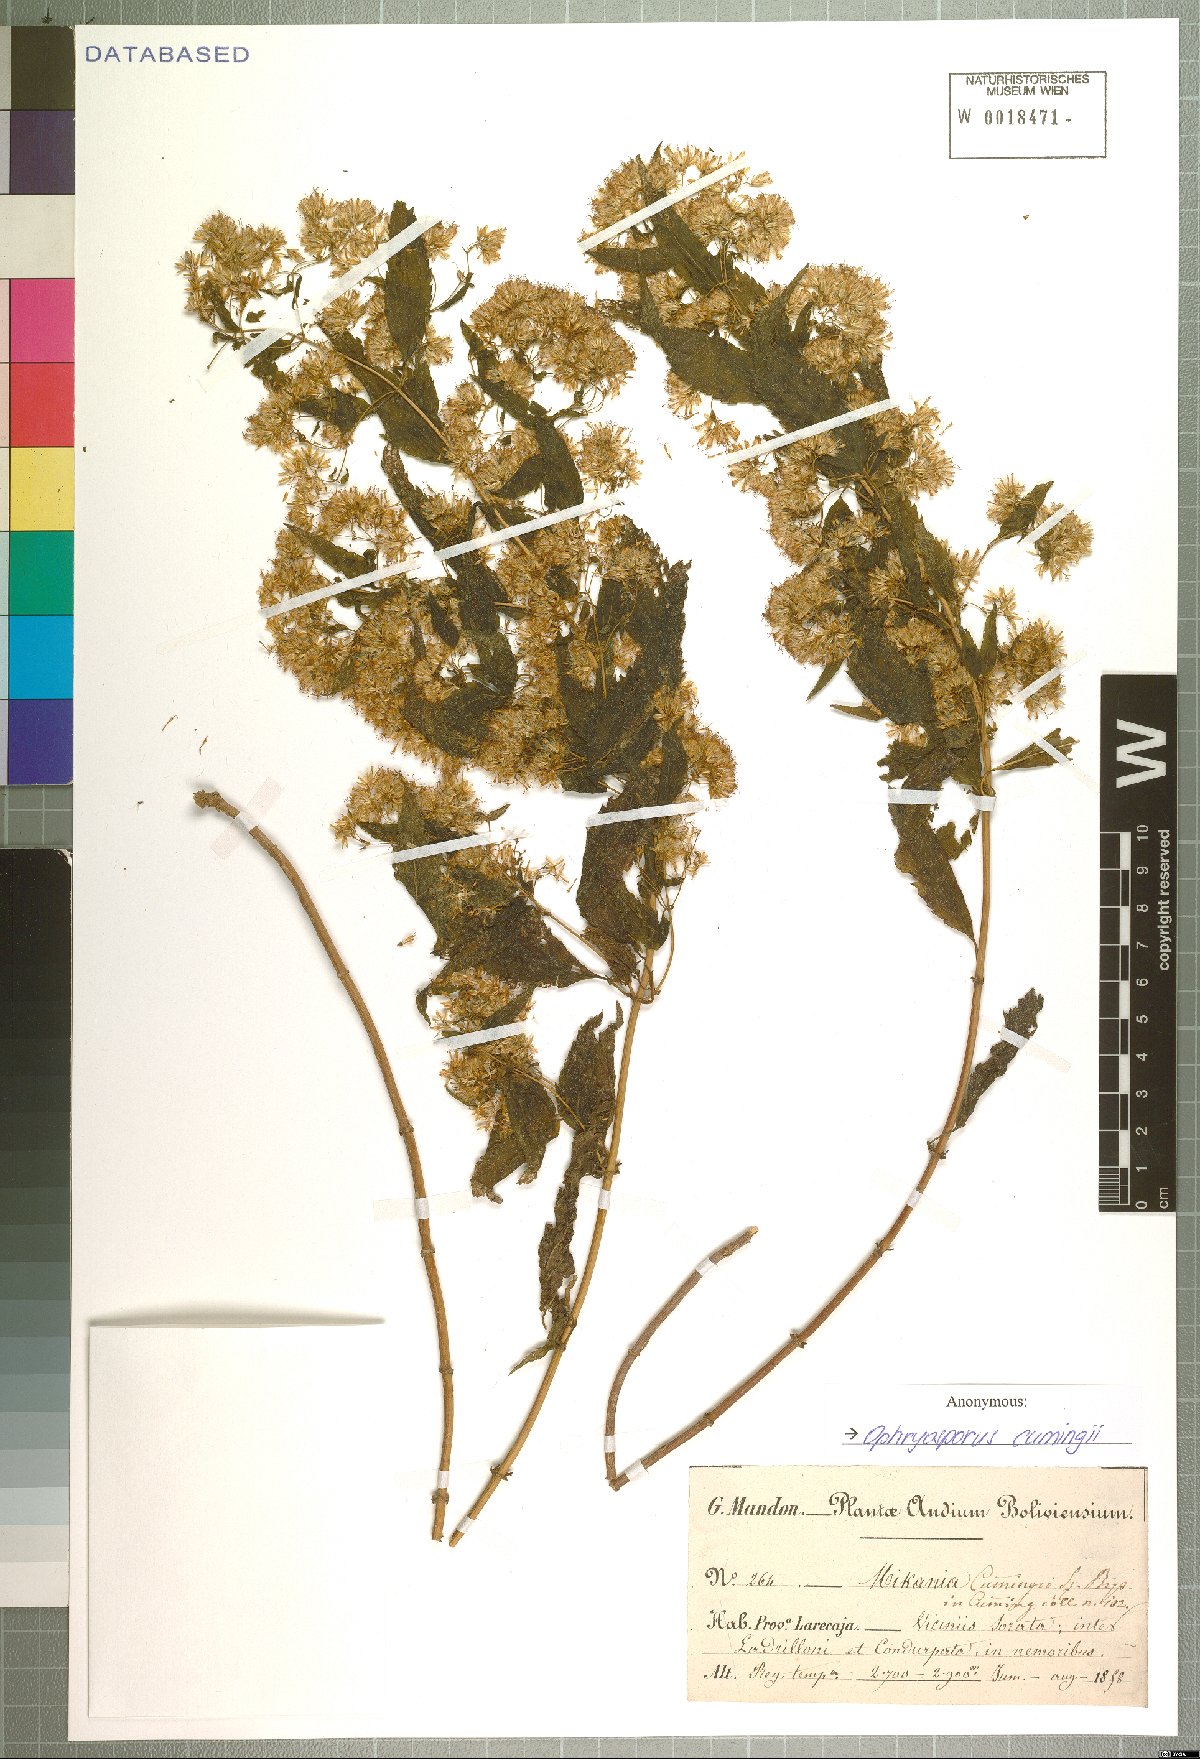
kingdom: Plantae
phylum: Tracheophyta
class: Magnoliopsida
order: Asterales
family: Asteraceae
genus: Ophryosporus
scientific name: Ophryosporus cumingii
